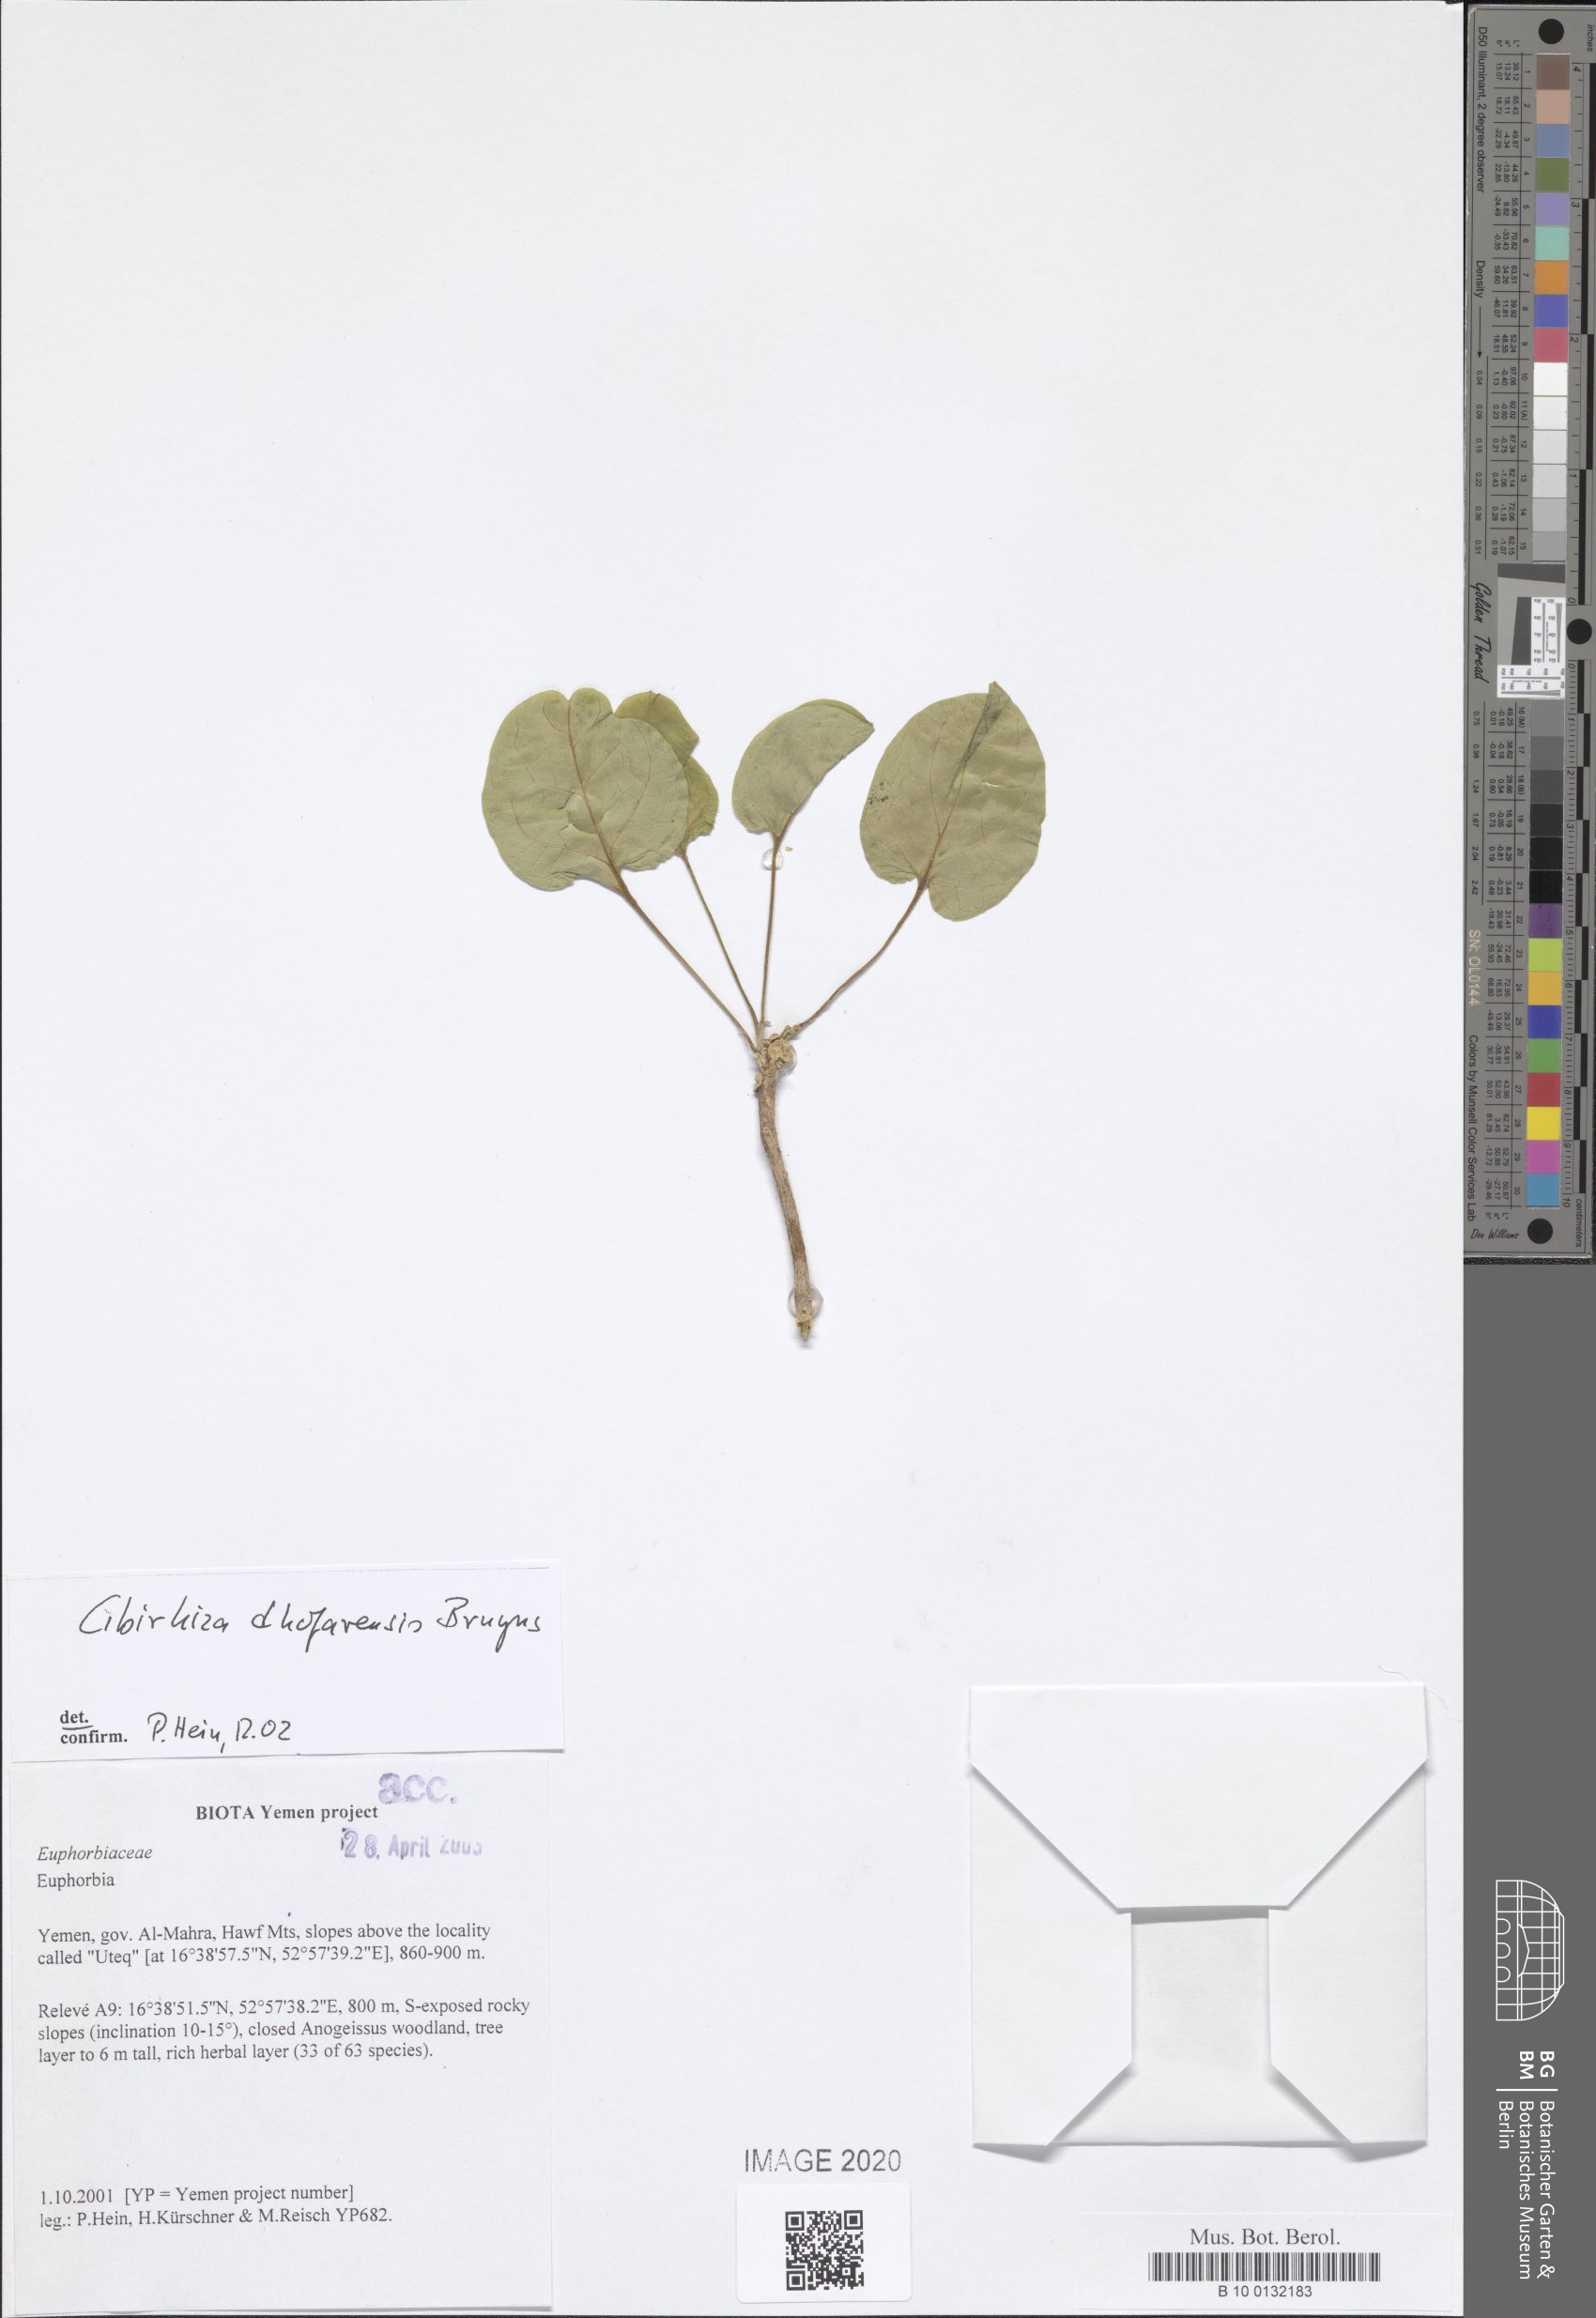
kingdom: Plantae
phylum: Tracheophyta
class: Magnoliopsida
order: Gentianales
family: Apocynaceae
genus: Cibirhiza
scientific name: Cibirhiza dhofarensis
